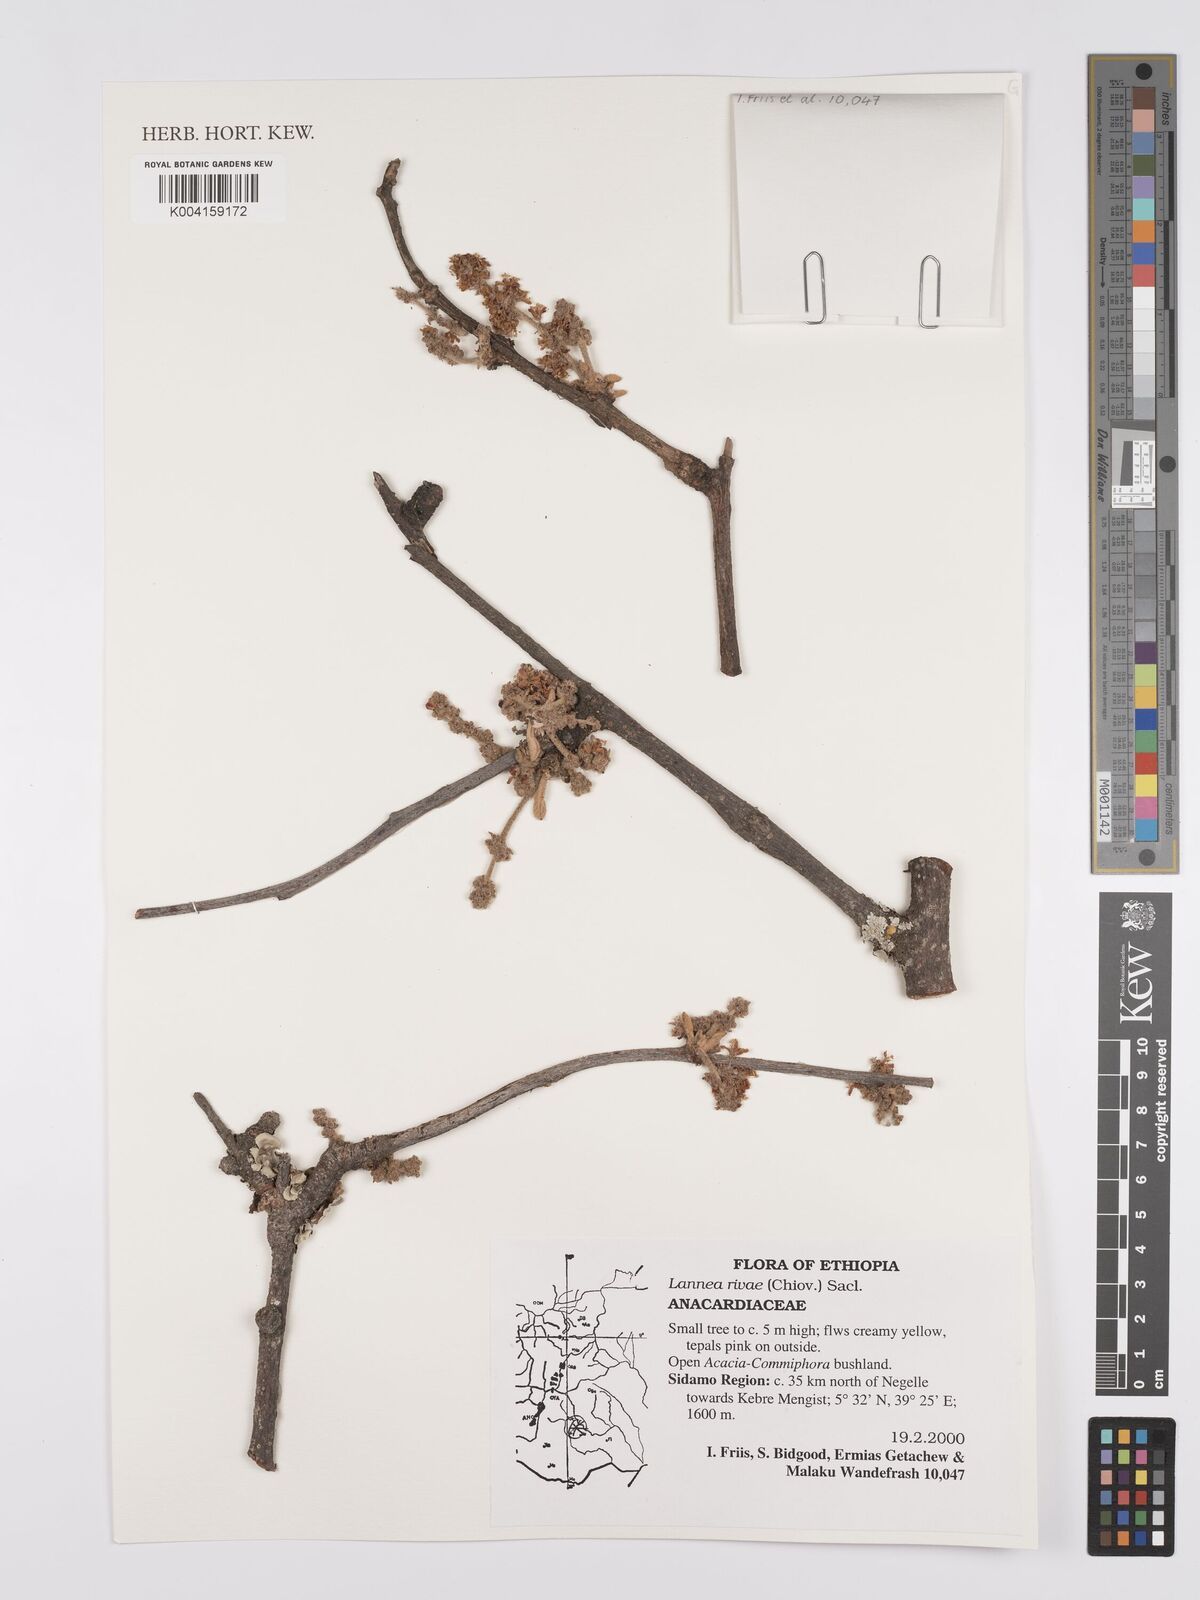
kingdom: Plantae
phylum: Tracheophyta
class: Magnoliopsida
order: Sapindales
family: Anacardiaceae
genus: Lannea
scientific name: Lannea rivae
